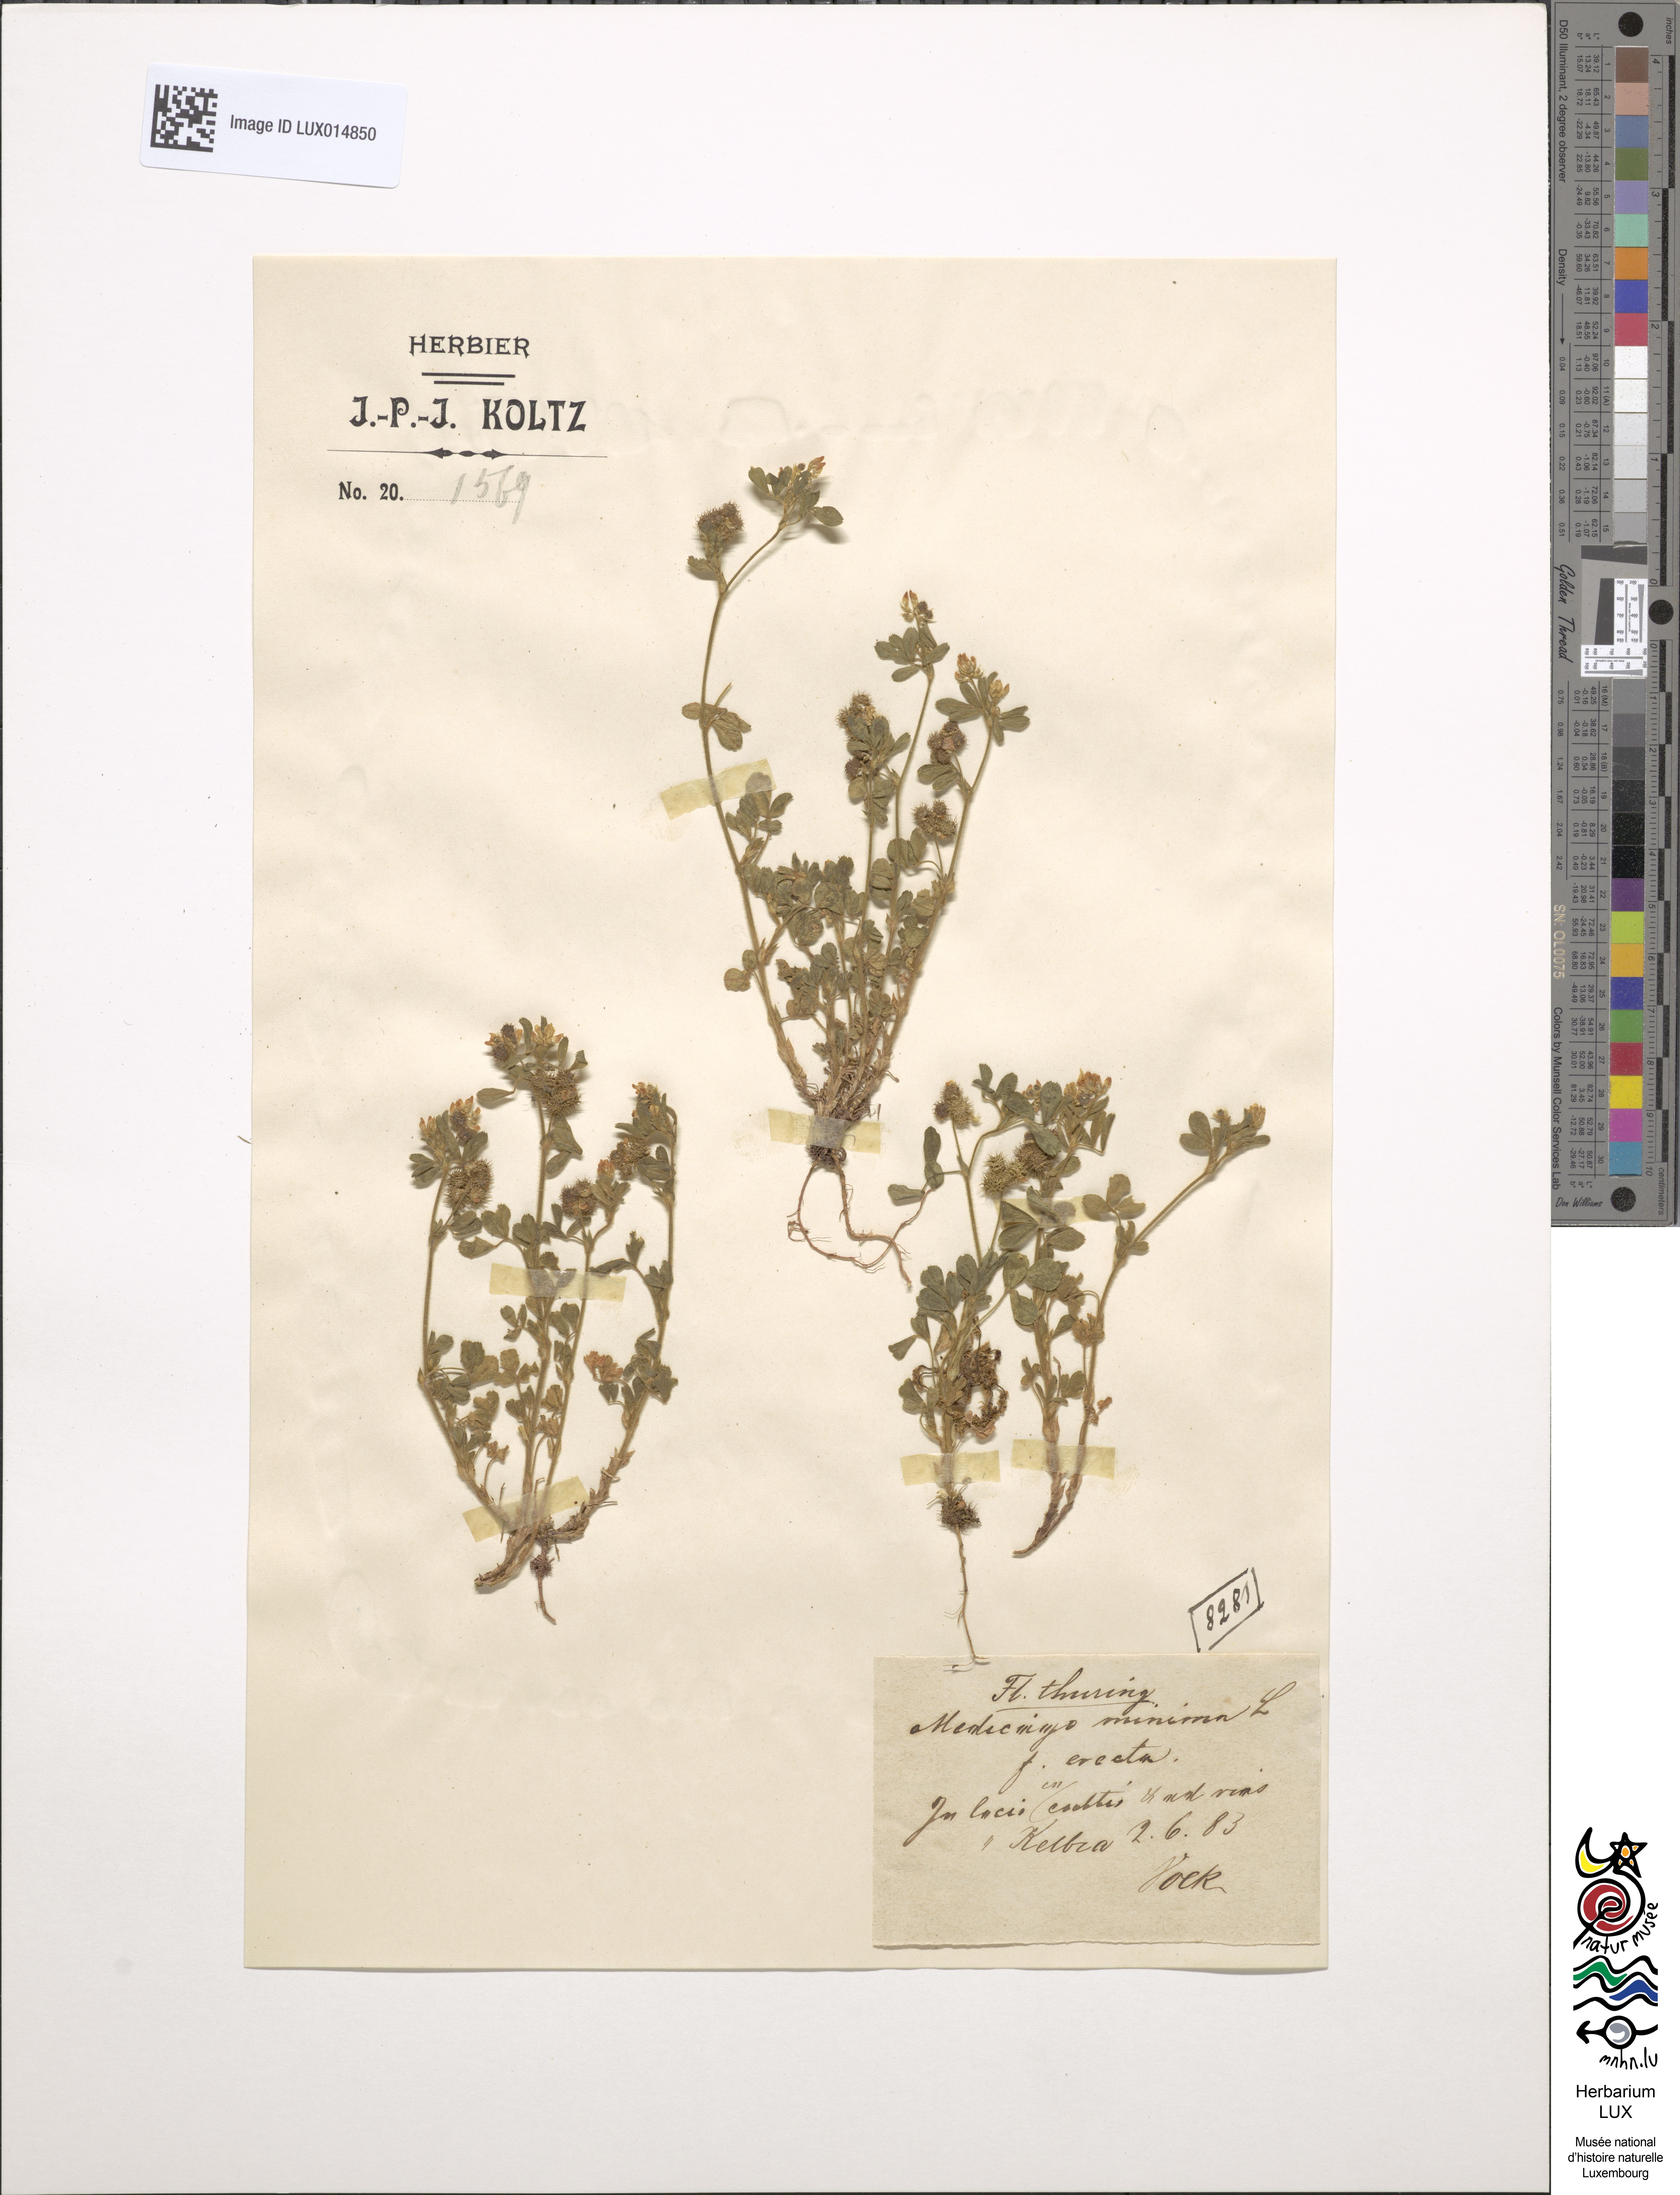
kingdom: Plantae
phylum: Tracheophyta
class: Magnoliopsida
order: Fabales
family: Fabaceae
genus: Medicago
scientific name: Medicago minima
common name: Little bur-clover
